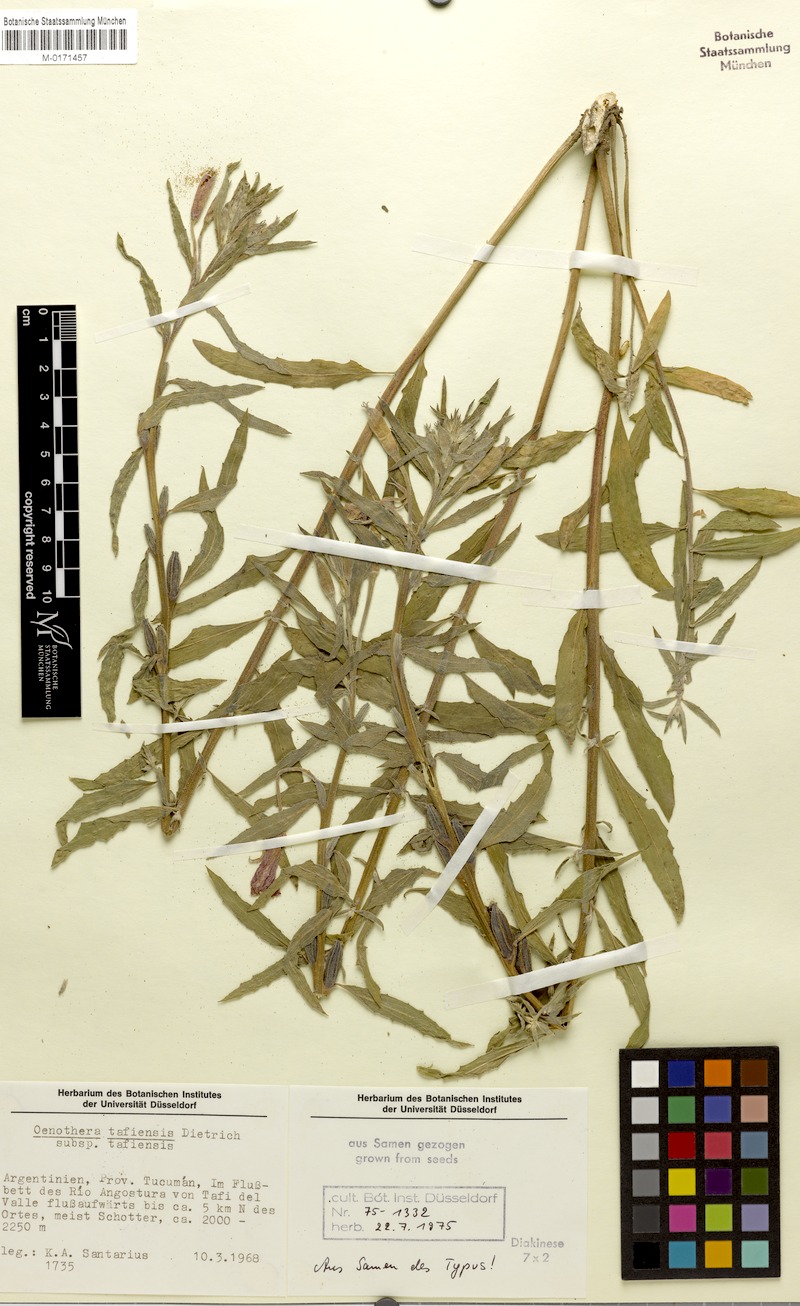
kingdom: Plantae
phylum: Tracheophyta
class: Magnoliopsida
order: Myrtales
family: Onagraceae
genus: Oenothera
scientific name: Oenothera tafiensis
